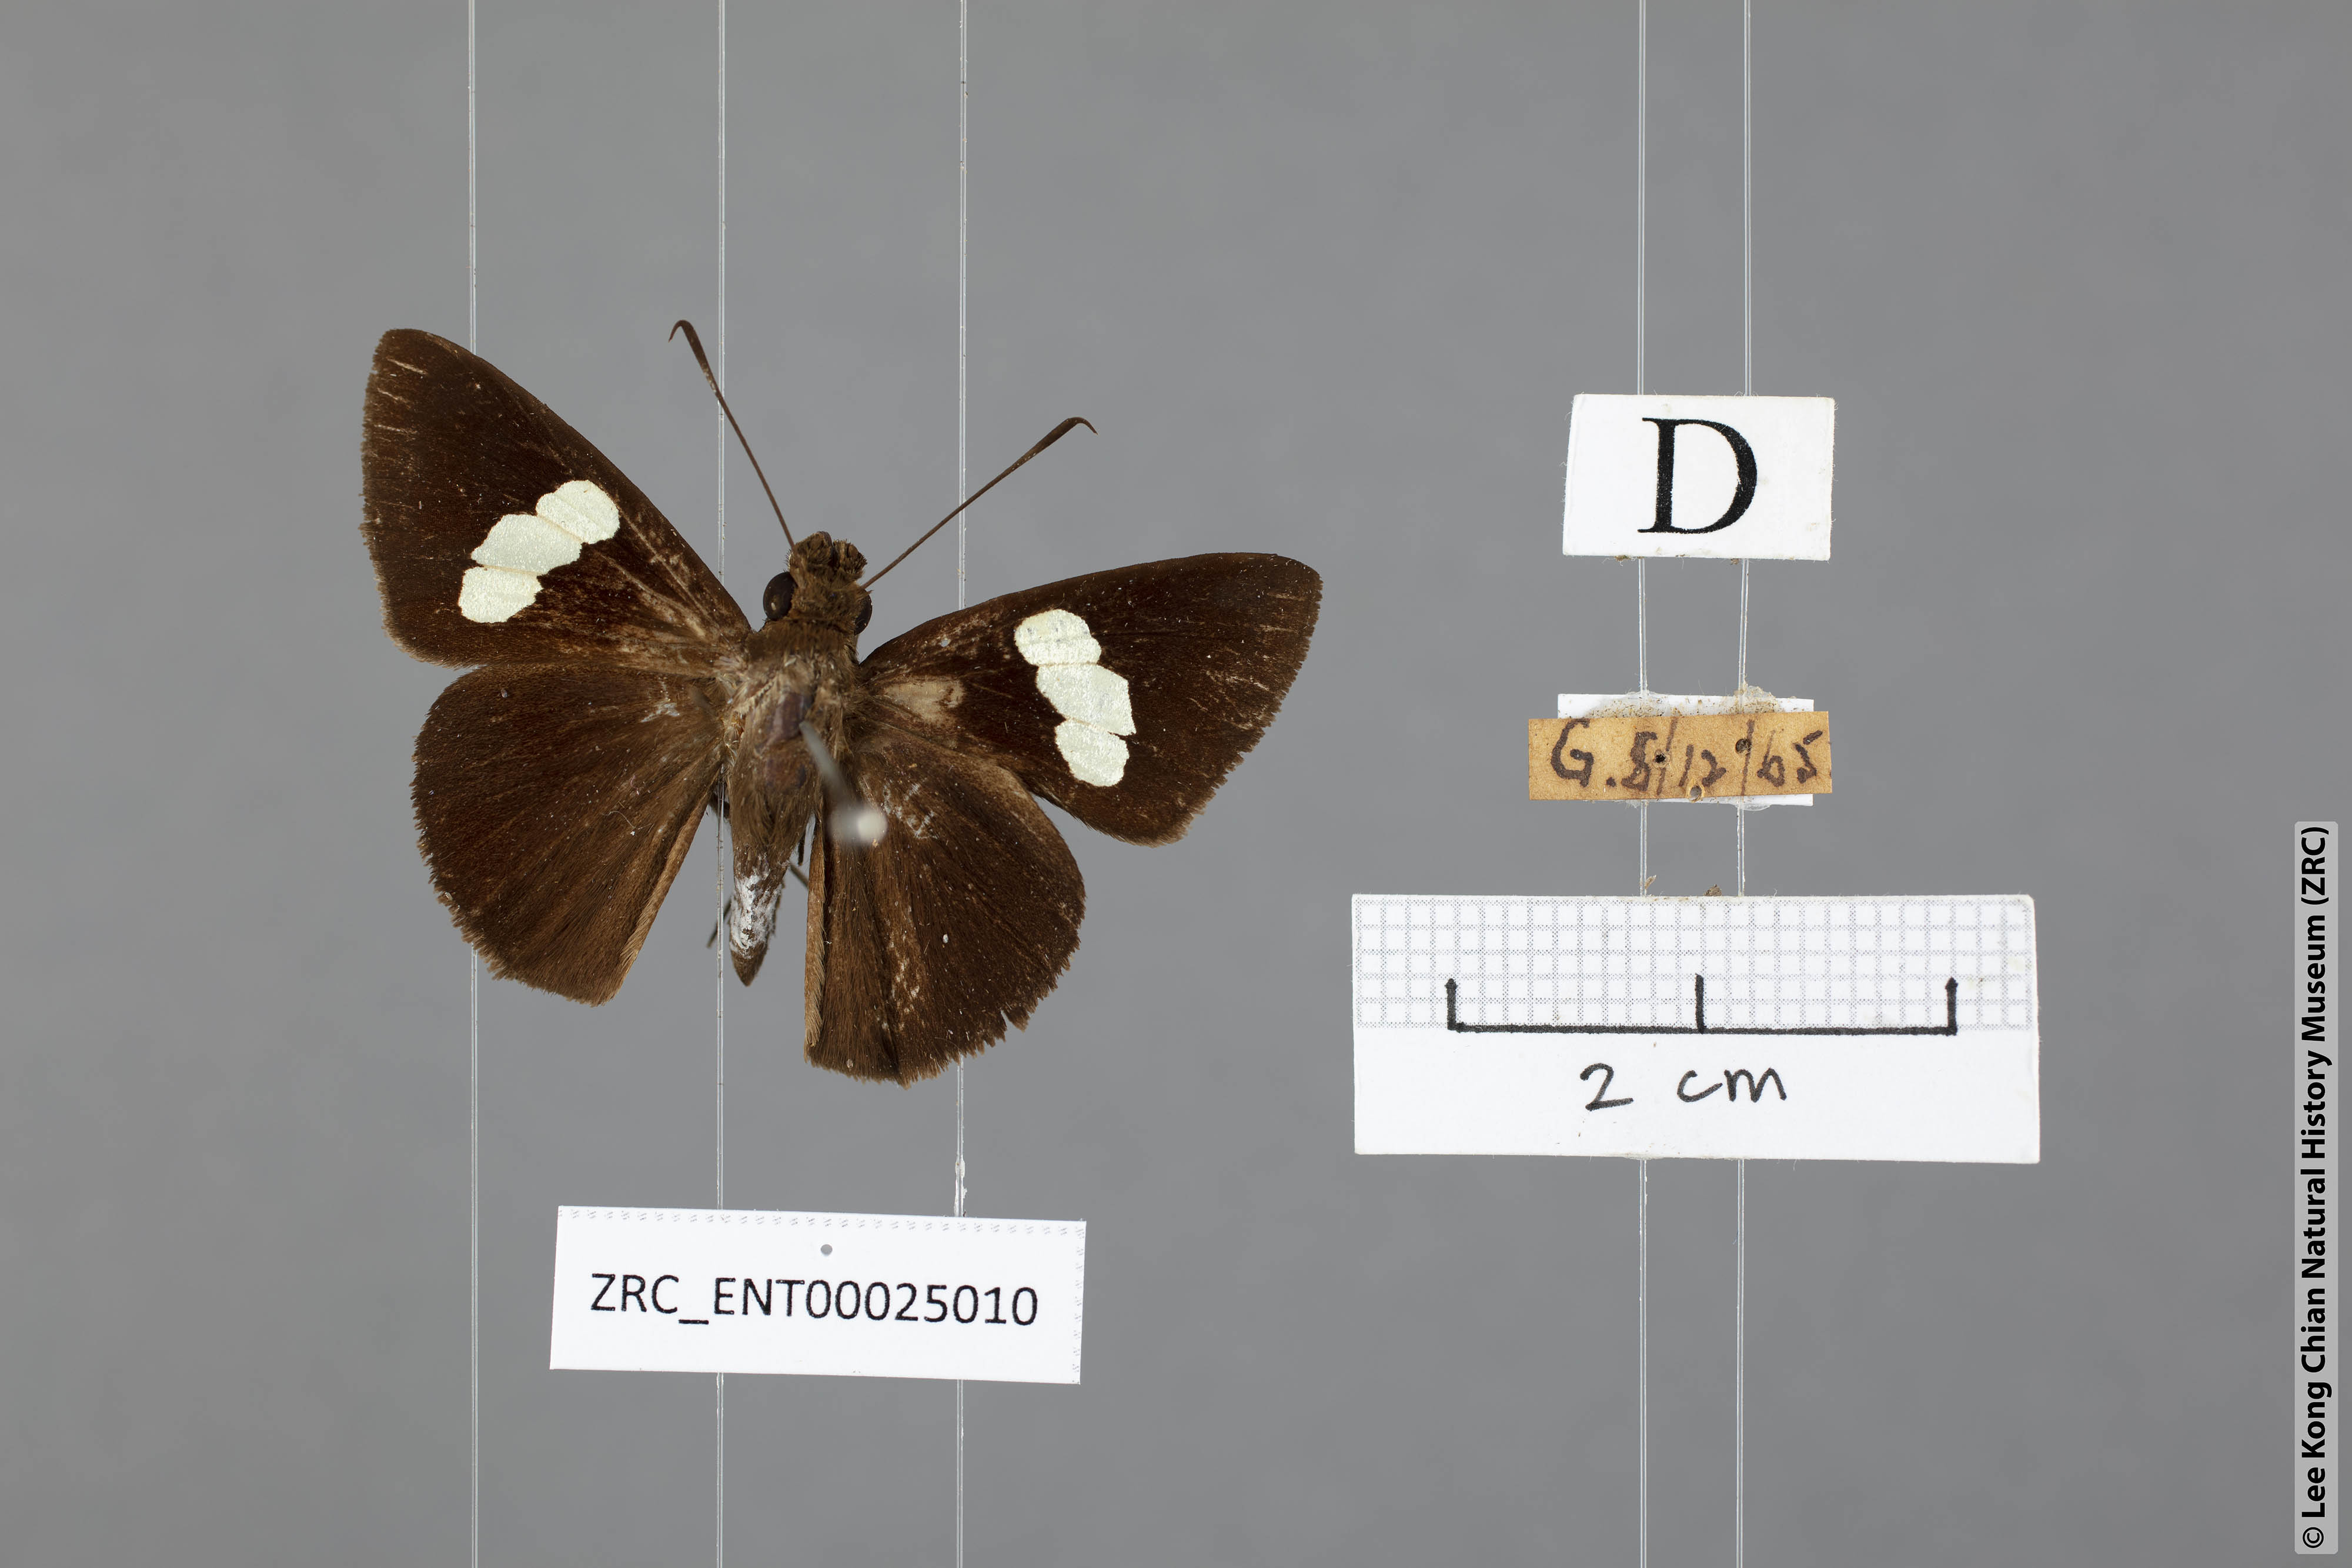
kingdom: Animalia
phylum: Arthropoda
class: Insecta
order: Lepidoptera
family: Hesperiidae
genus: Notocrypta
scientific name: Notocrypta curvifascia
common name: Restricted demon
